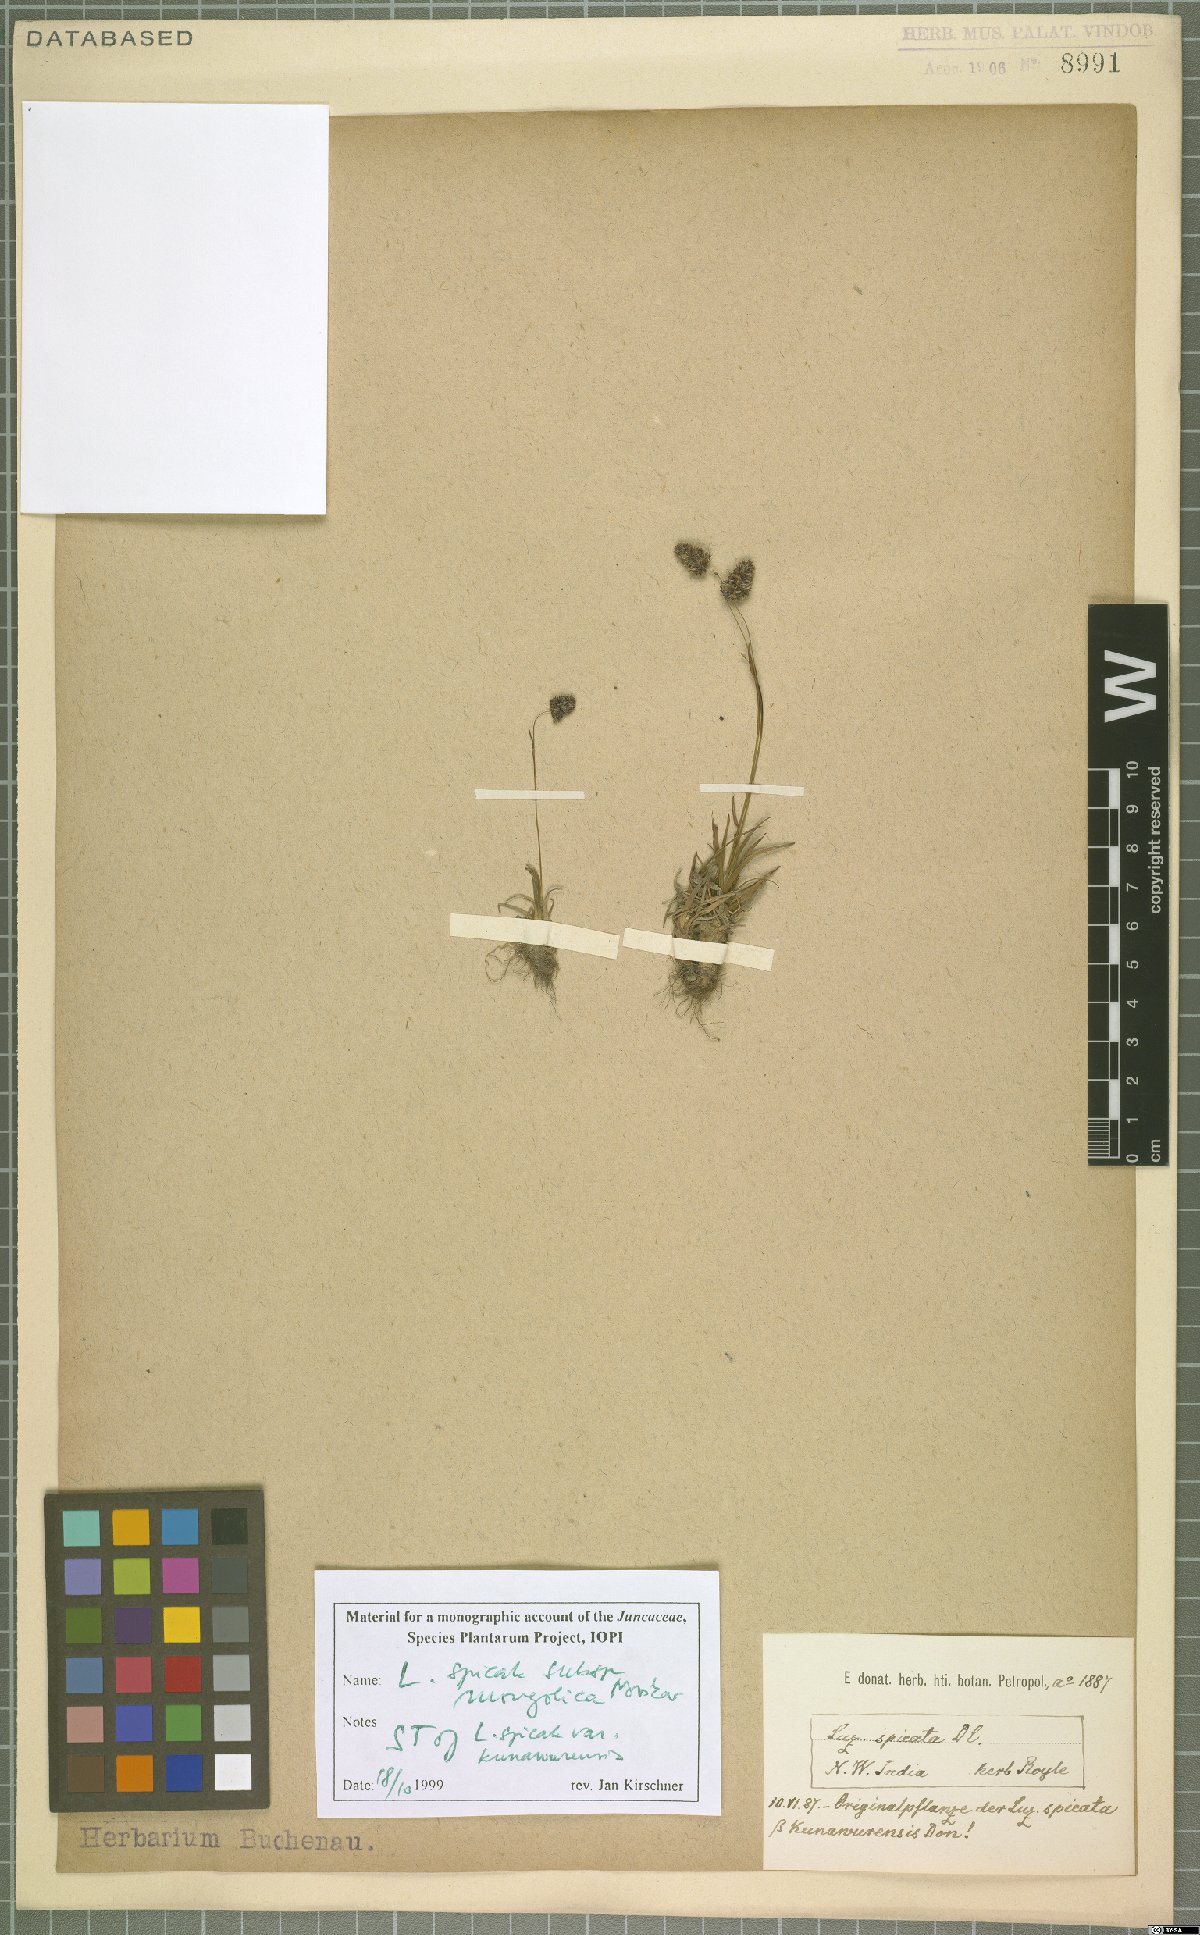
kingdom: Plantae
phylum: Tracheophyta
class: Liliopsida
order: Poales
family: Juncaceae
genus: Luzula
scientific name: Luzula spicata
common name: Spiked wood-rush
